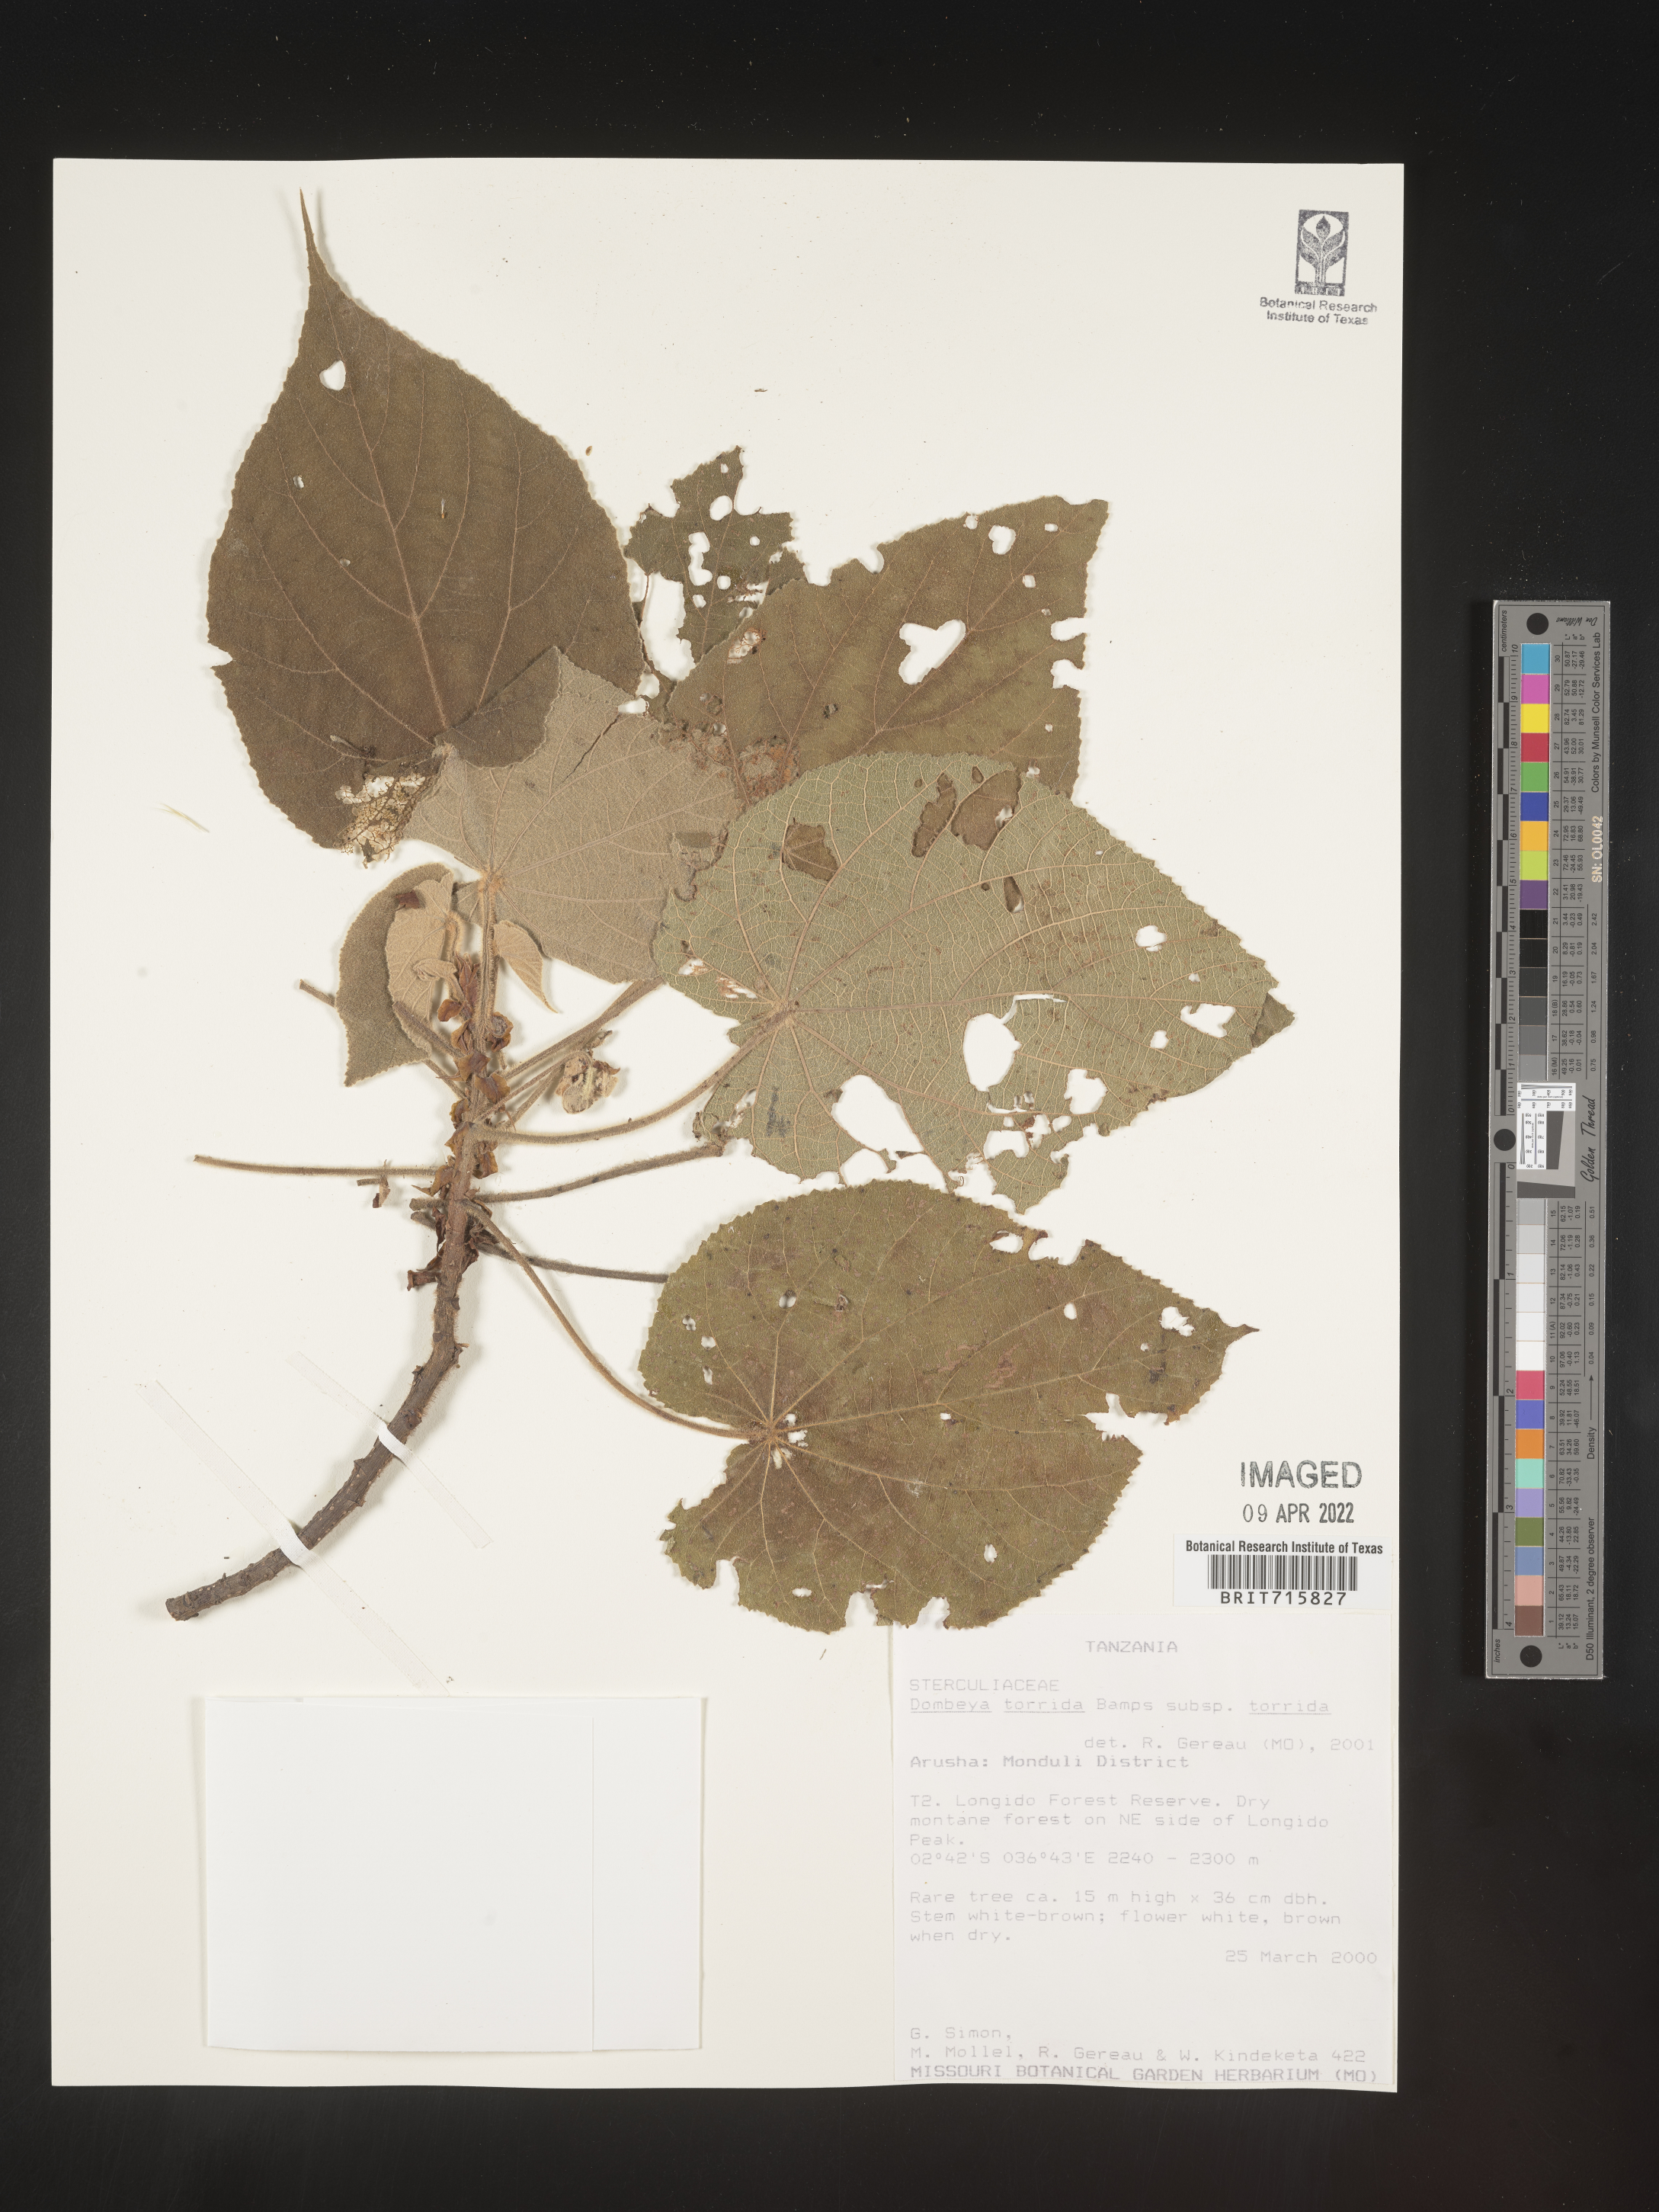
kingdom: Plantae
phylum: Tracheophyta
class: Magnoliopsida
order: Malvales
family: Malvaceae
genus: Dombeya
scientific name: Dombeya
